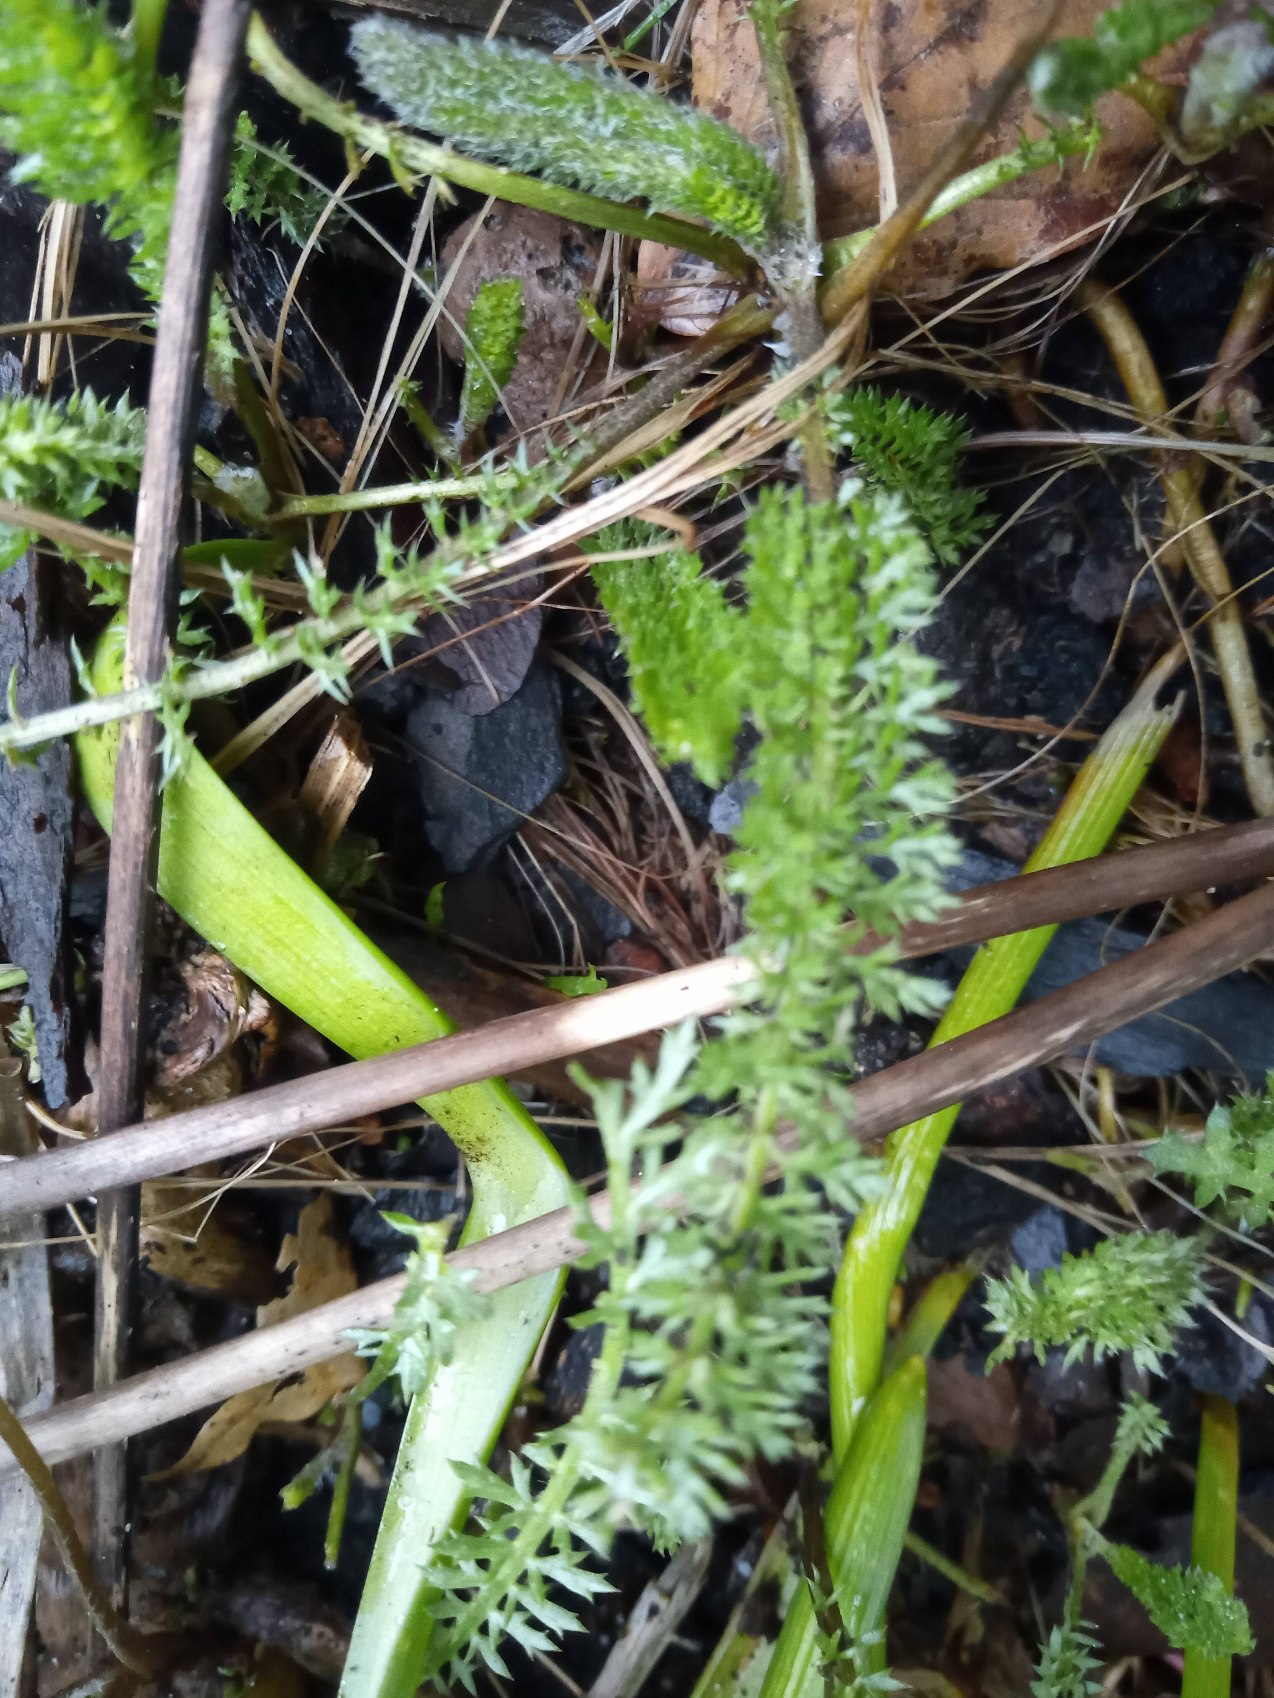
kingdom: Plantae
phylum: Tracheophyta
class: Magnoliopsida
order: Asterales
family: Asteraceae
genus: Achillea
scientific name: Achillea millefolium
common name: Almindelig røllike (underart)
